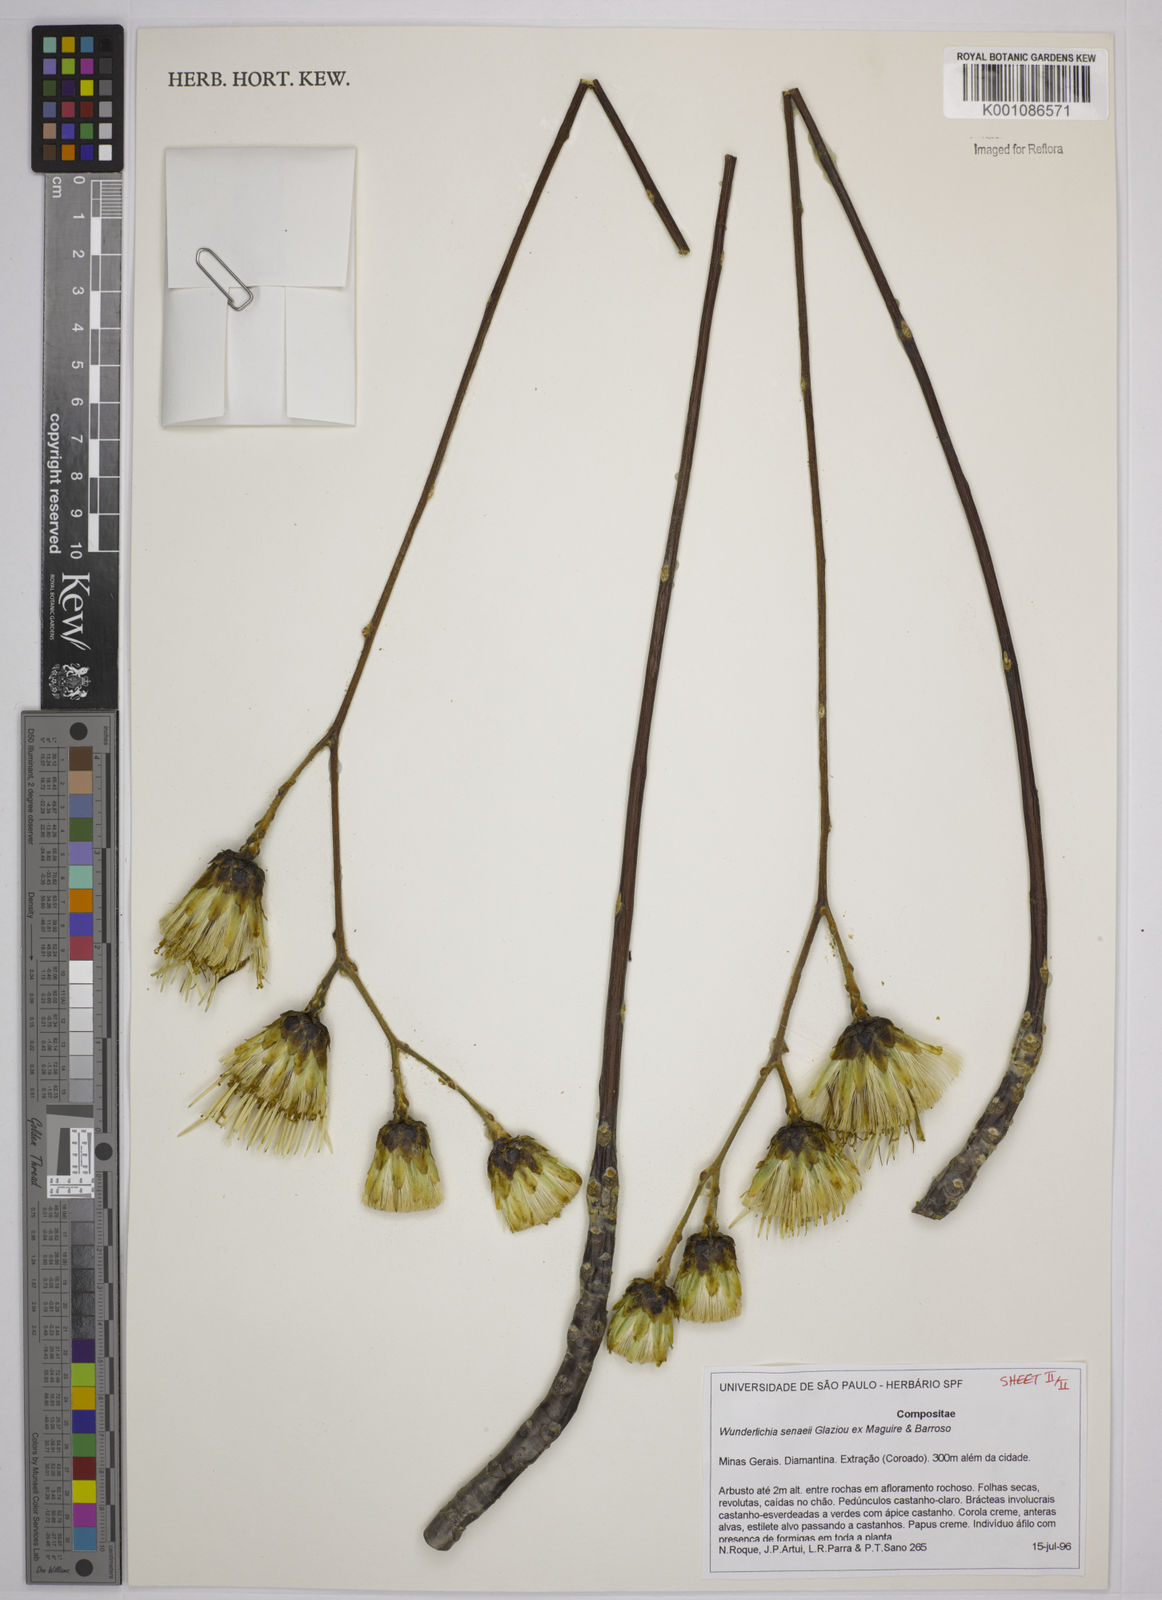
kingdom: Plantae
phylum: Tracheophyta
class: Magnoliopsida
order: Asterales
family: Asteraceae
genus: Wunderlichia
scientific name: Wunderlichia
